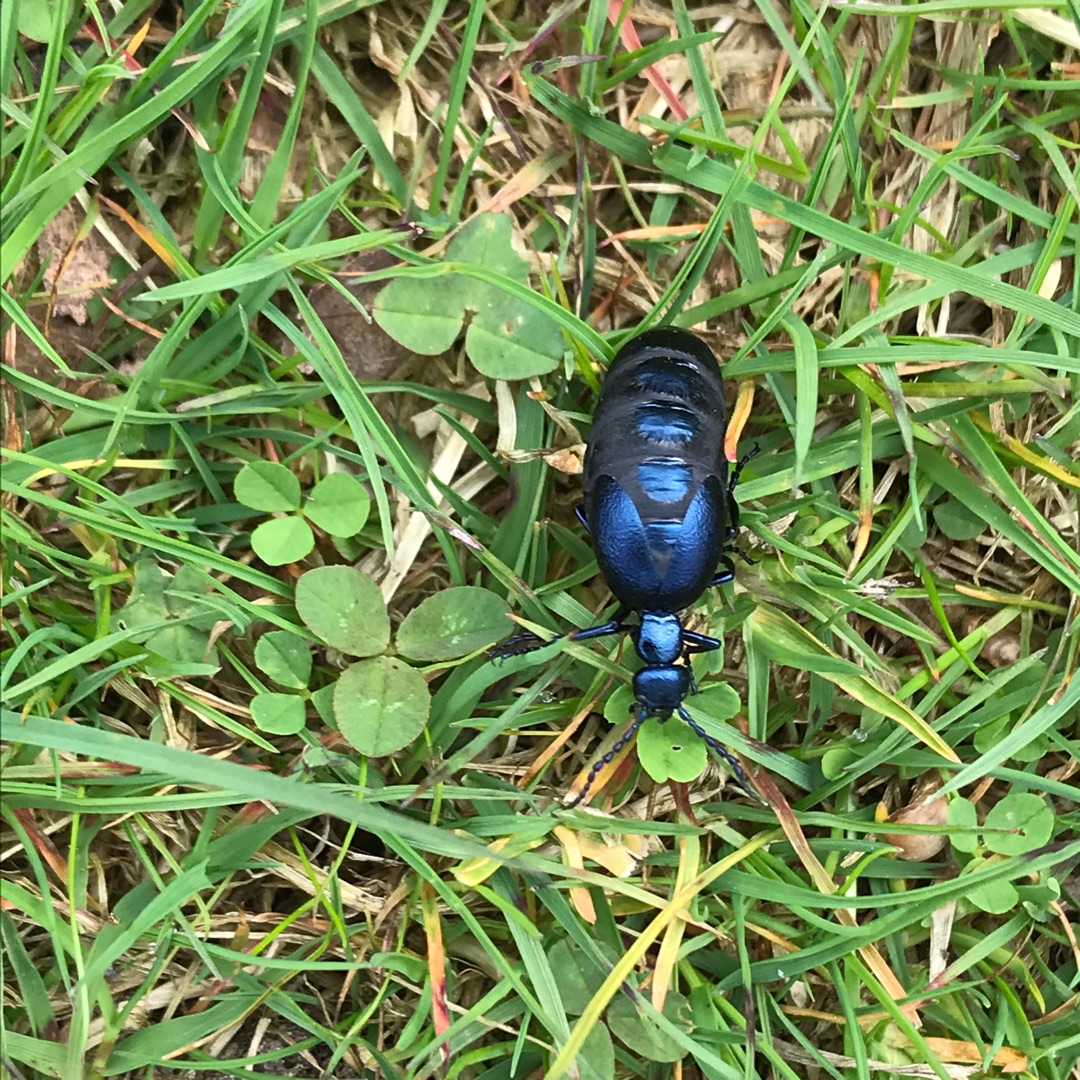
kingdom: Animalia
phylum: Arthropoda
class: Insecta
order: Coleoptera
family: Meloidae
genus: Meloe
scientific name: Meloe violaceus
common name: Blå oliebille
